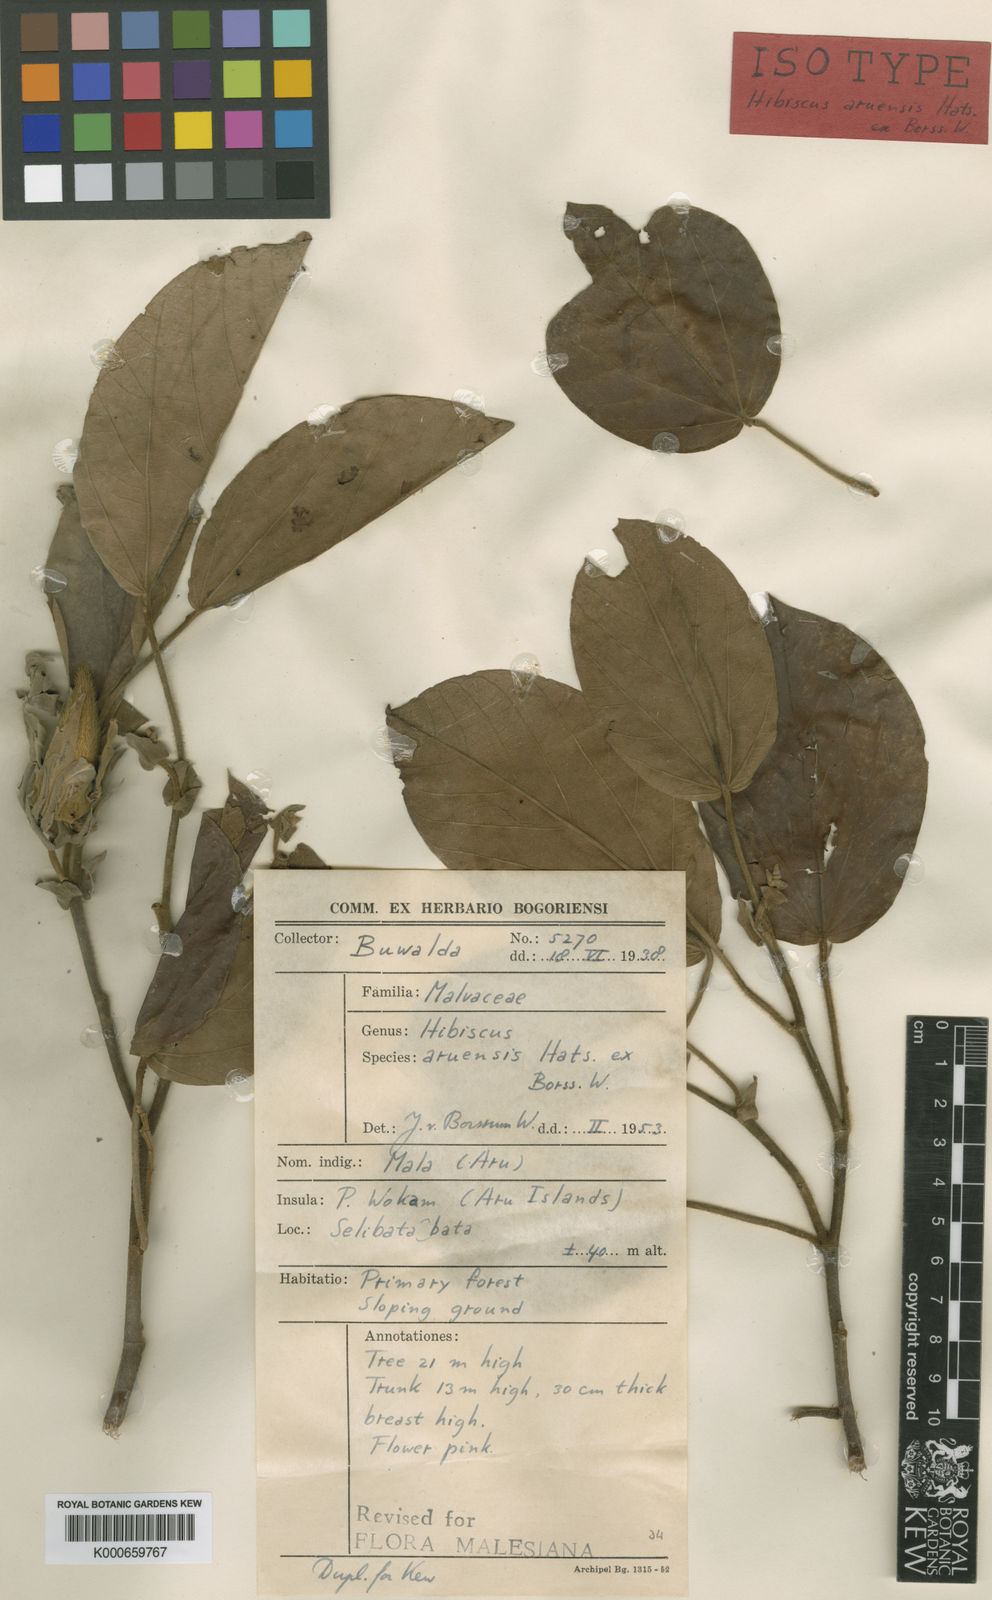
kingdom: Plantae
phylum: Tracheophyta
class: Magnoliopsida
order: Malvales
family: Malvaceae
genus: Talipariti
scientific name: Talipariti aruense
